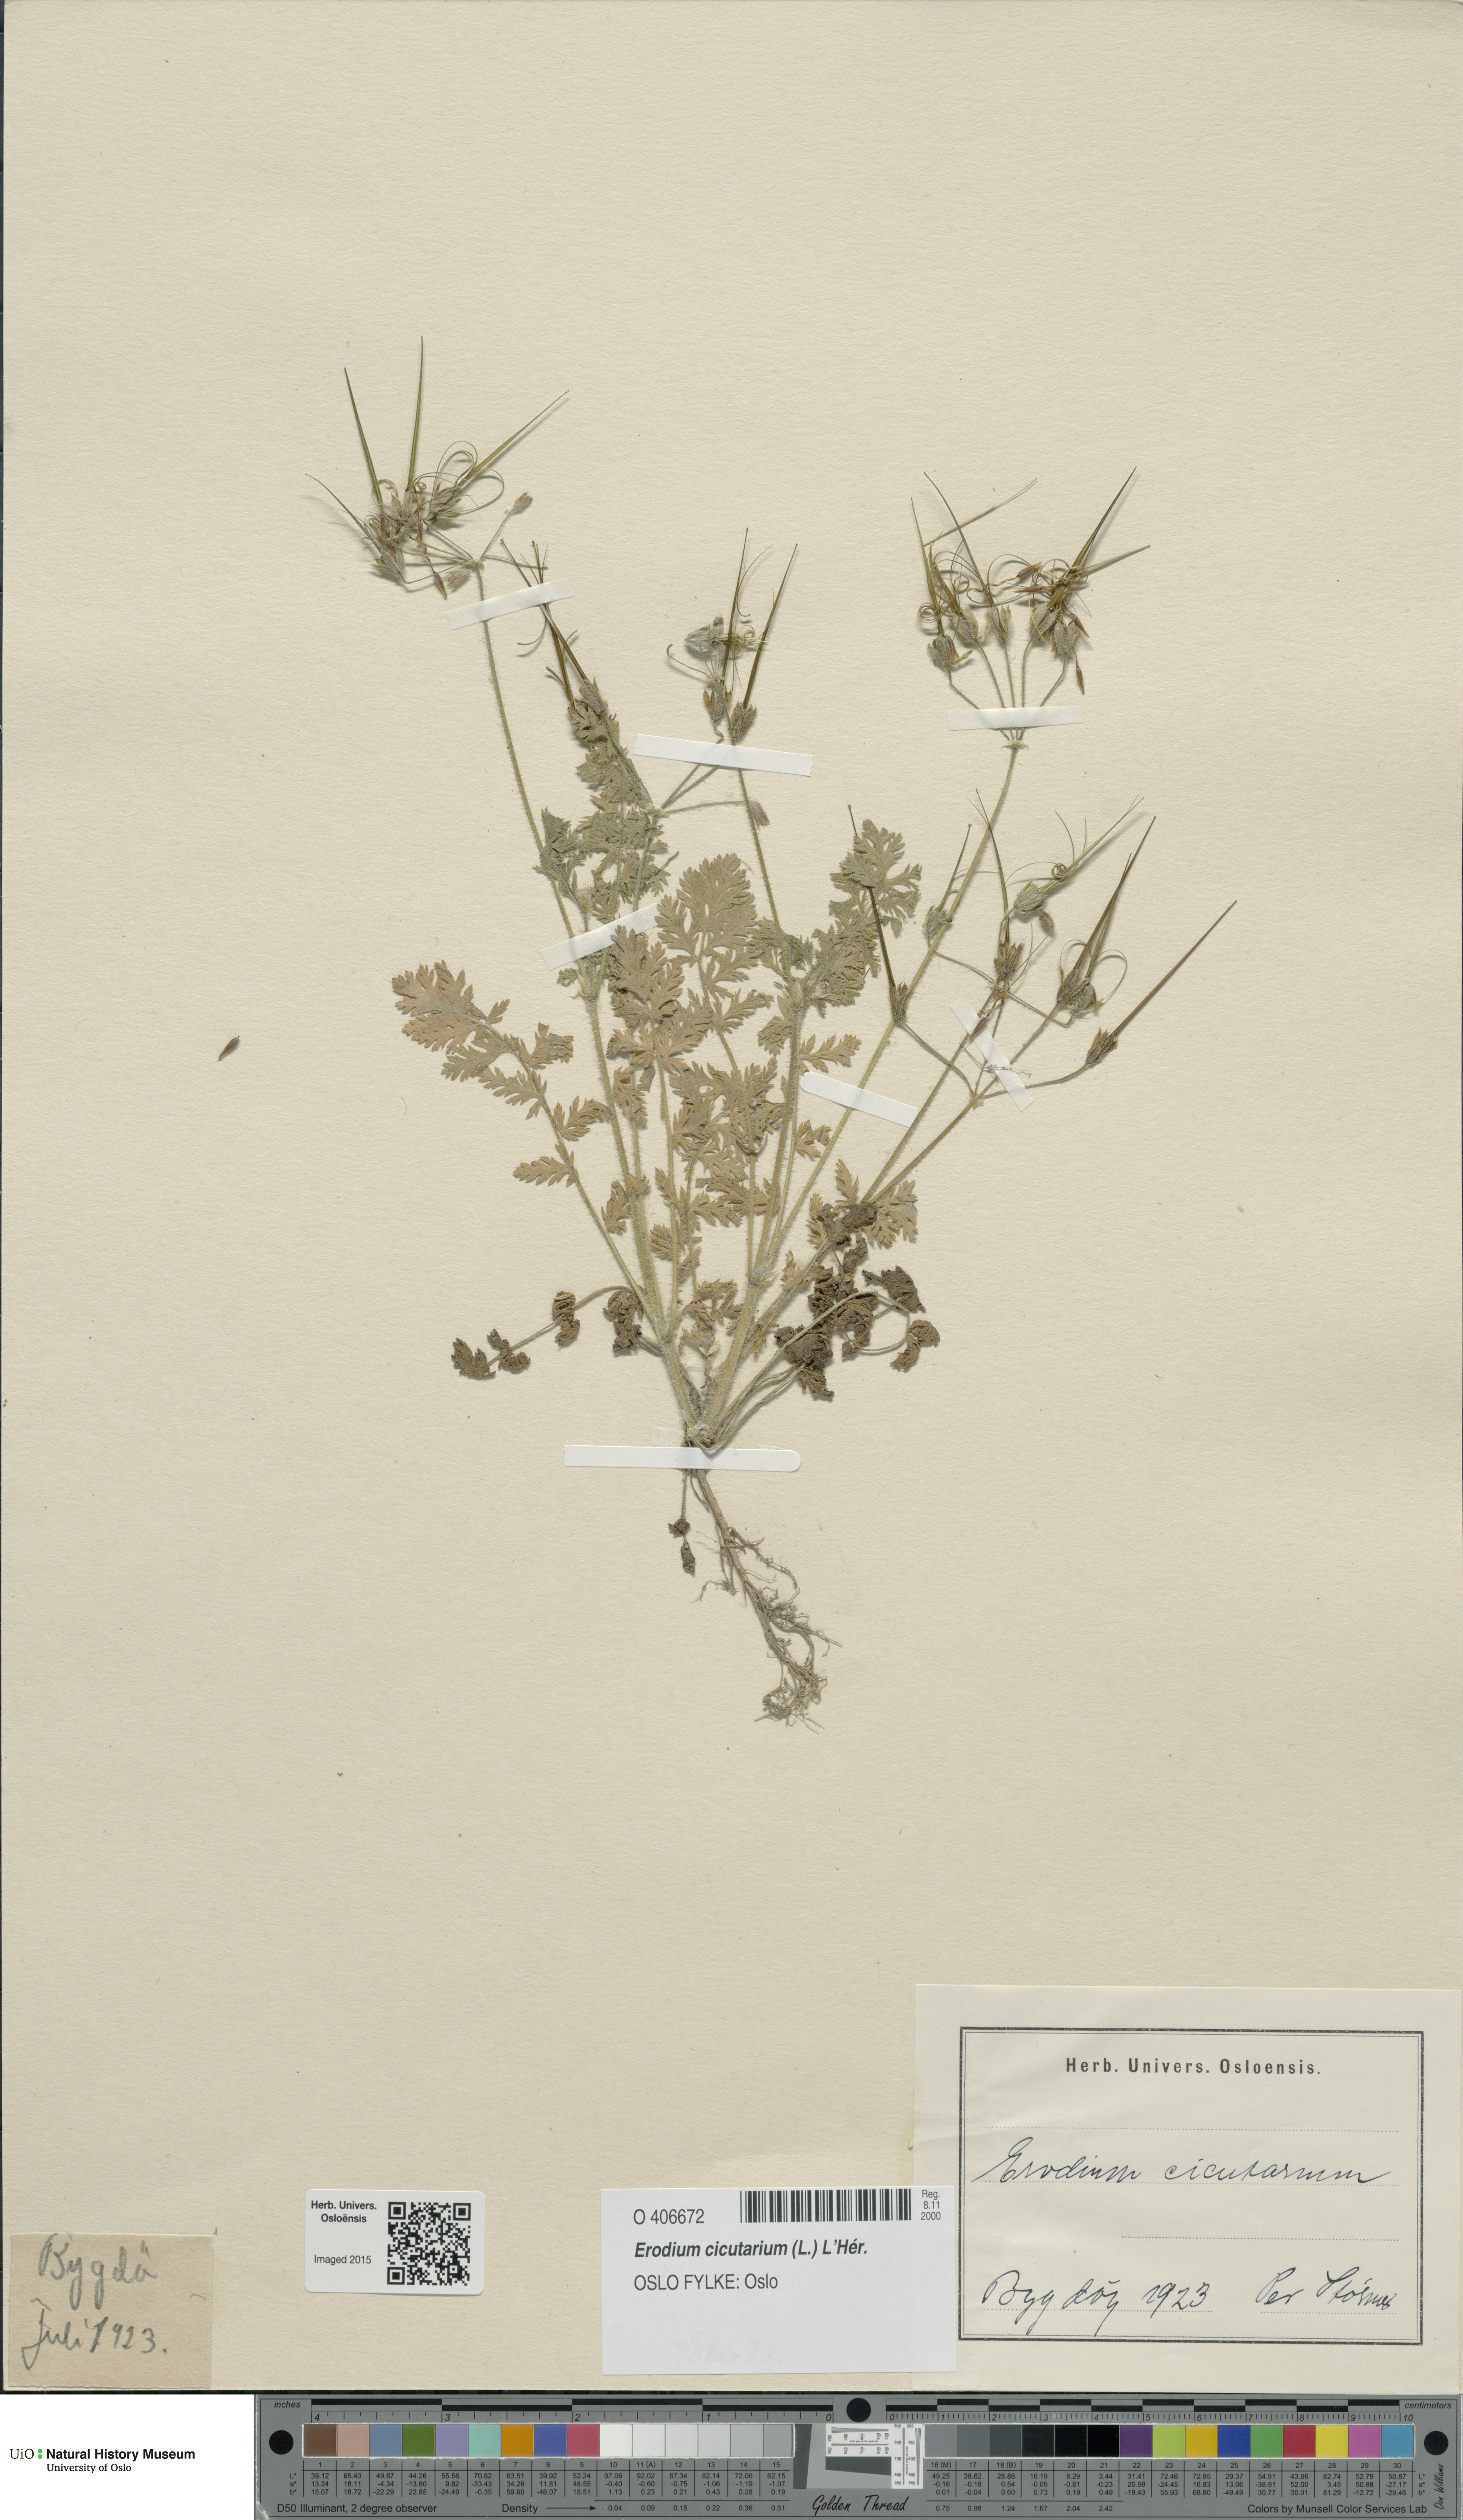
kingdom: Plantae
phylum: Tracheophyta
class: Magnoliopsida
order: Geraniales
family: Geraniaceae
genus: Erodium
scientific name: Erodium cicutarium
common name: Common stork's-bill
